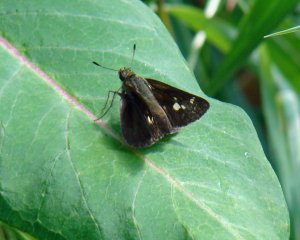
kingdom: Animalia
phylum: Arthropoda
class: Insecta
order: Lepidoptera
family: Hesperiidae
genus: Vernia
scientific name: Vernia verna
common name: Little Glassywing
